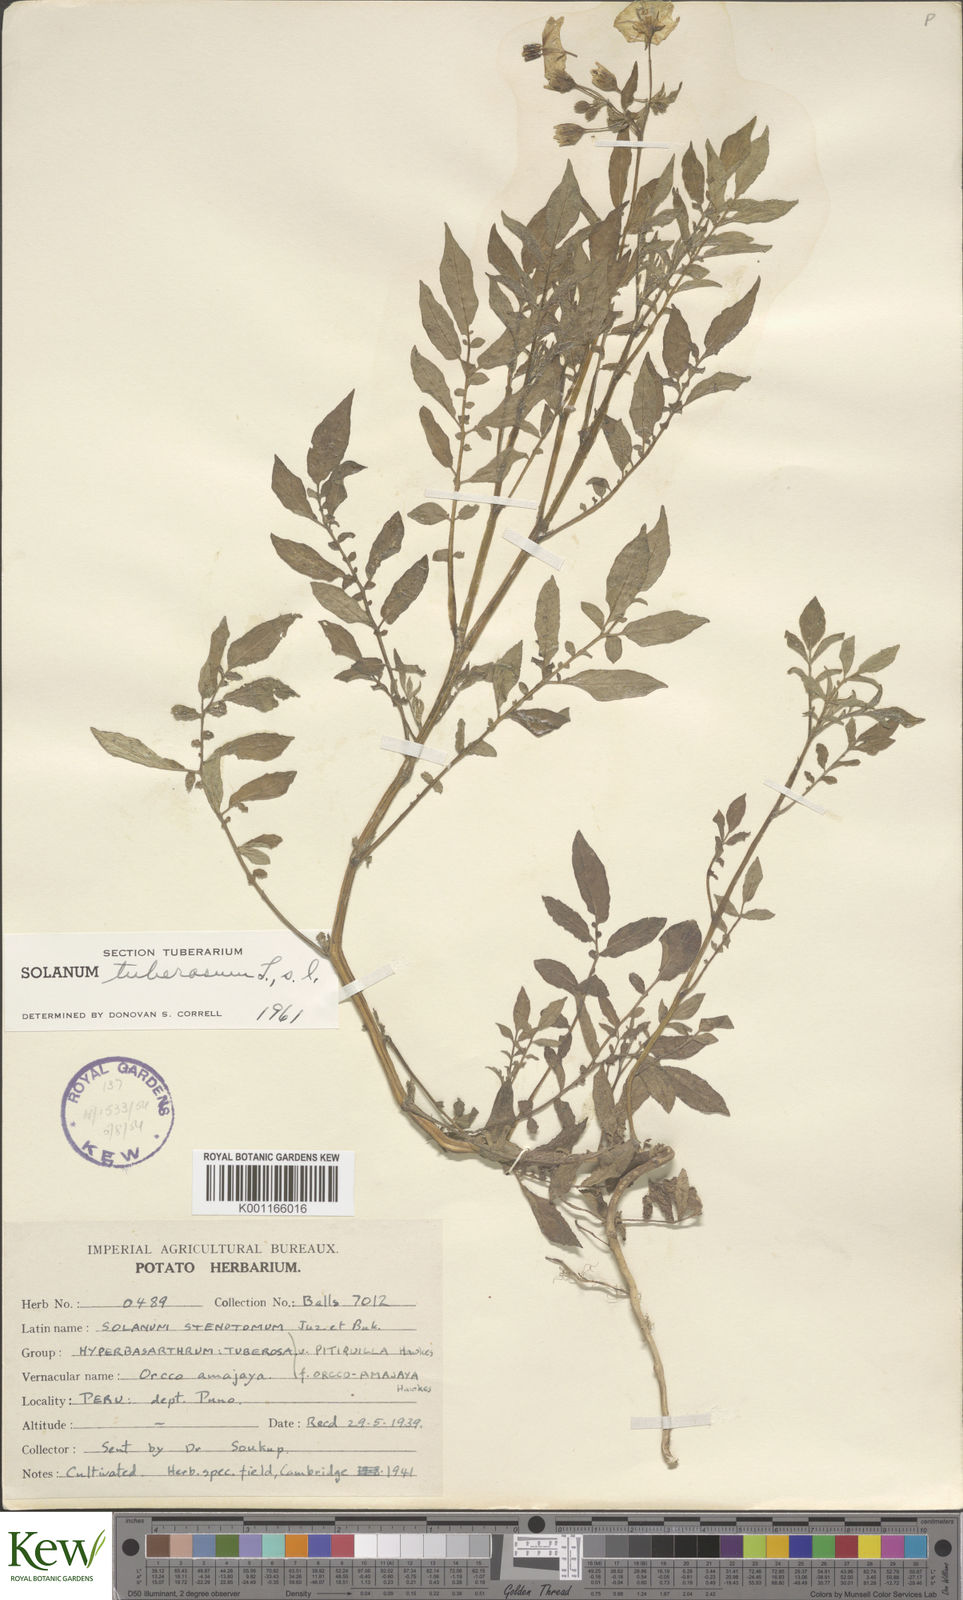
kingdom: Plantae
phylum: Tracheophyta
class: Magnoliopsida
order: Solanales
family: Solanaceae
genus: Solanum
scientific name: Solanum tuberosum
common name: Potato
